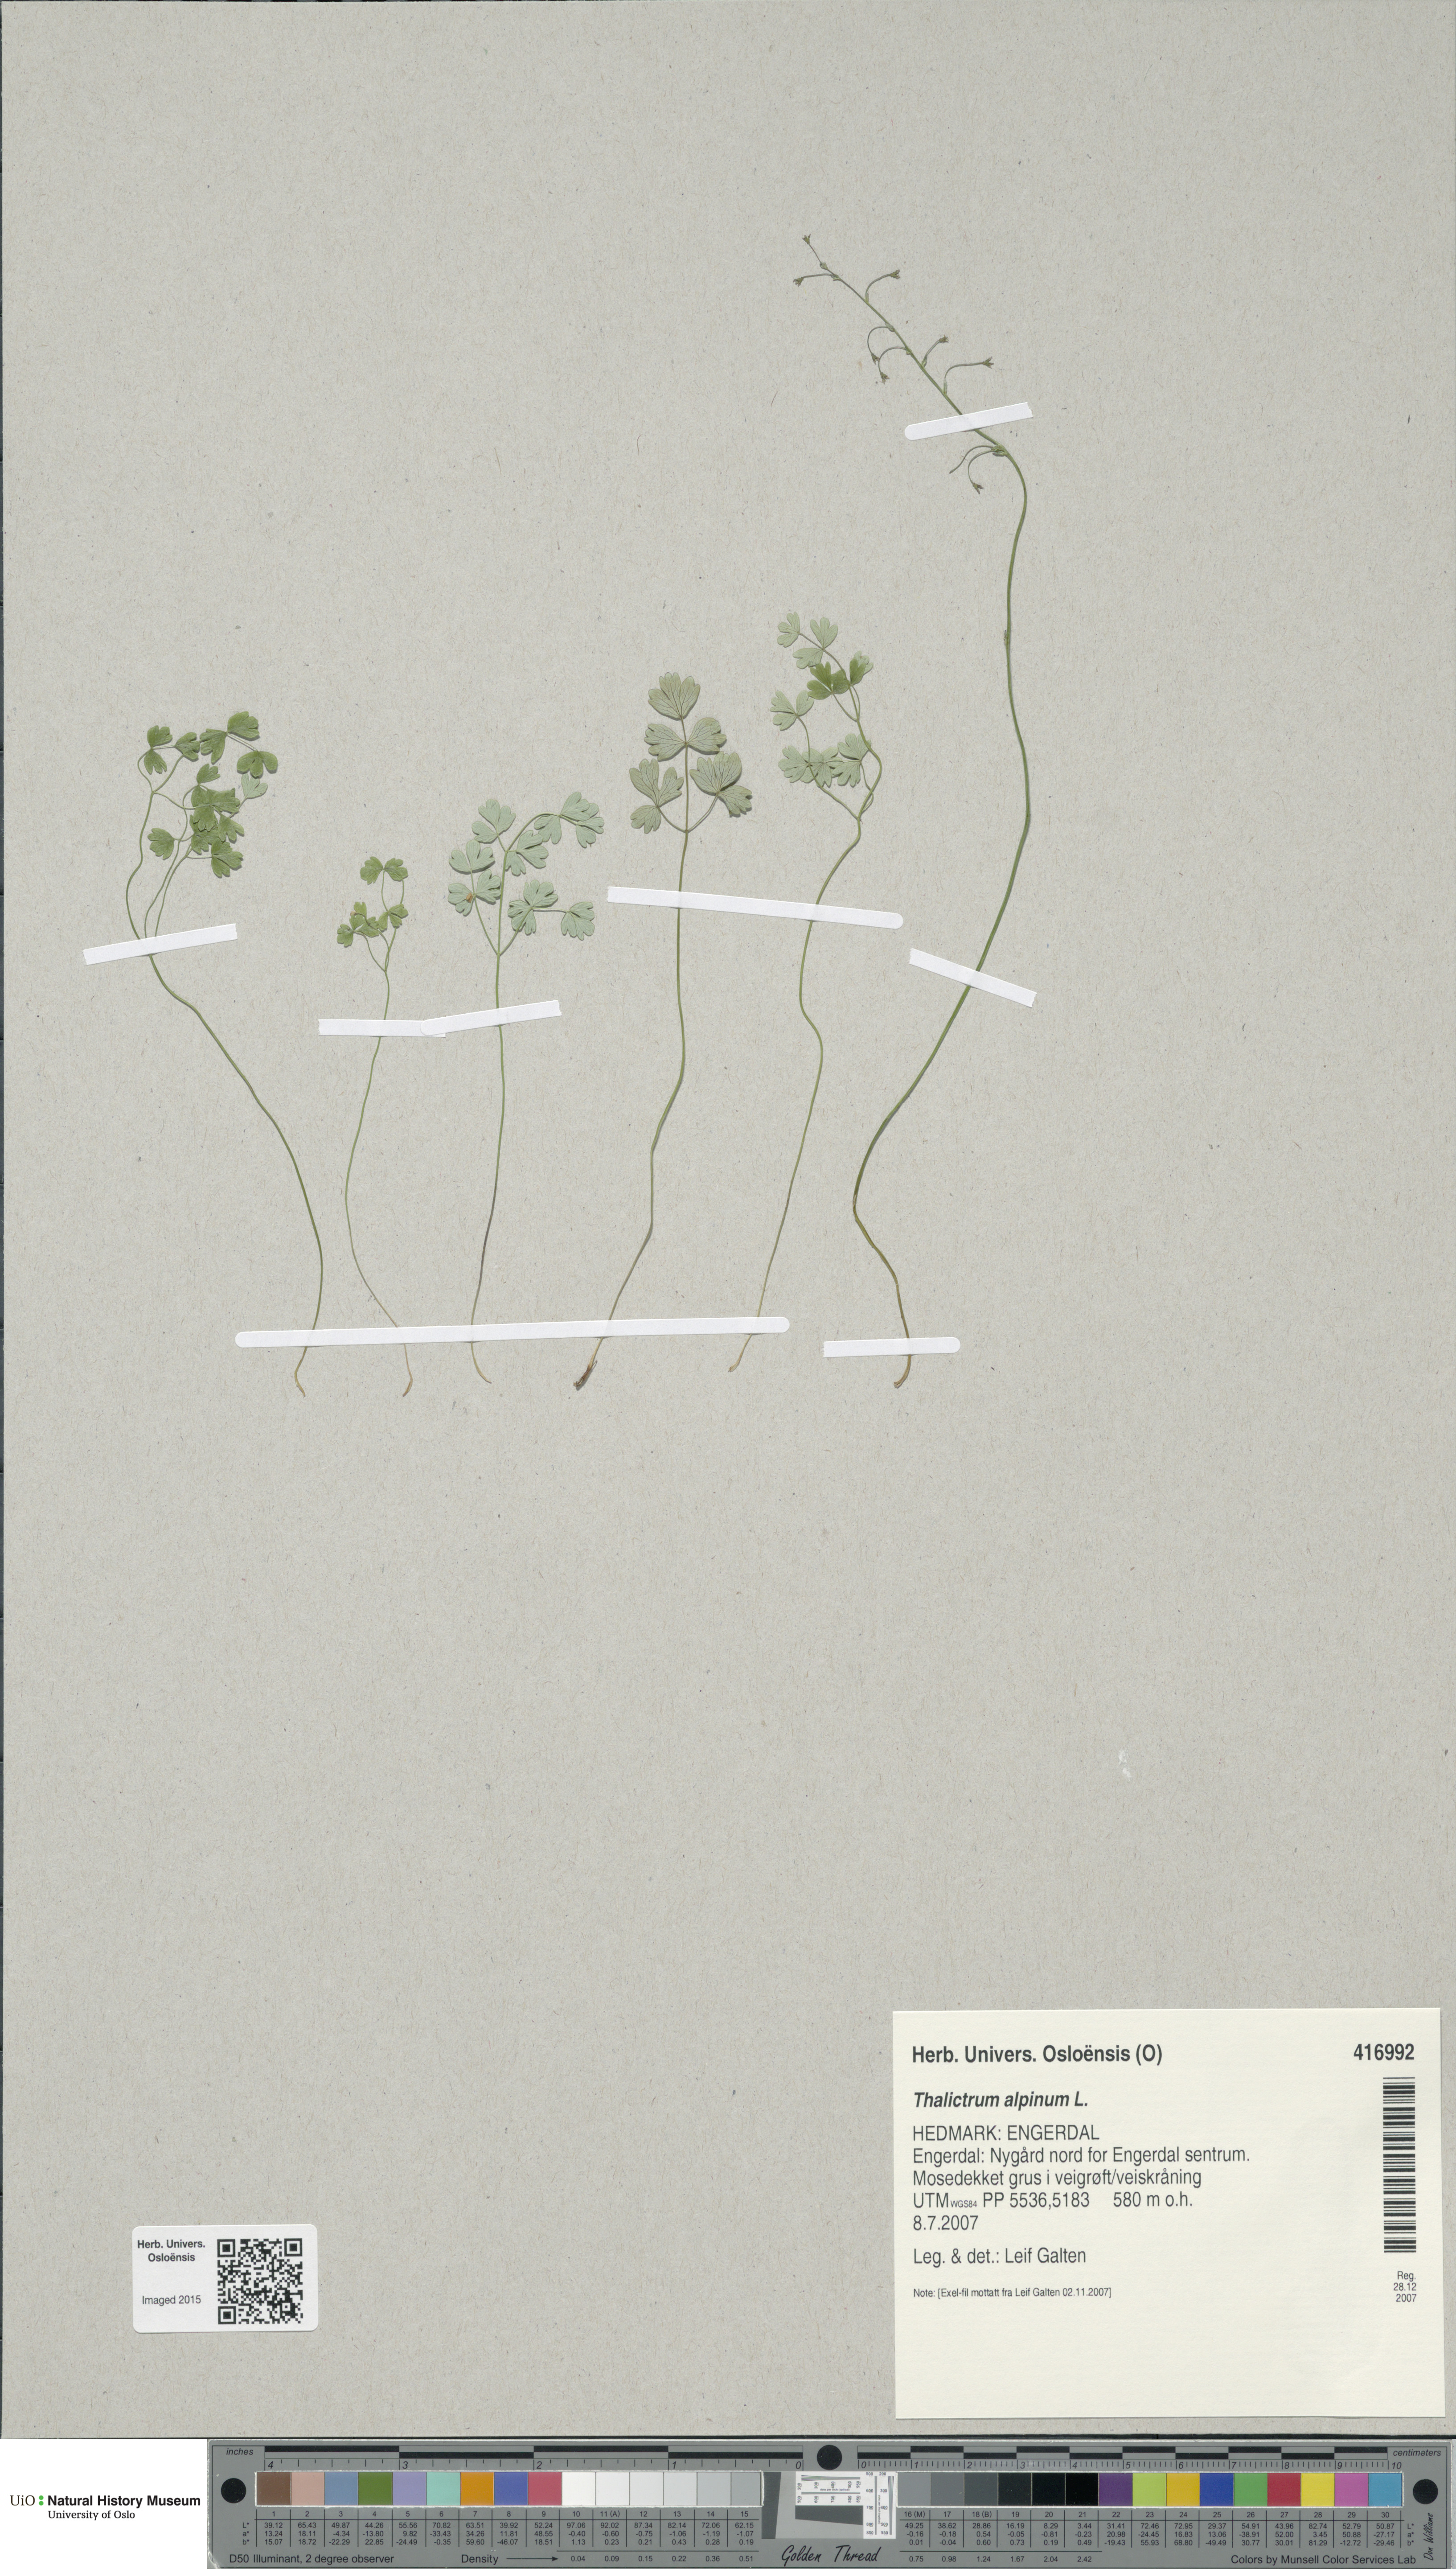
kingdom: Plantae
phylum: Tracheophyta
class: Magnoliopsida
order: Ranunculales
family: Ranunculaceae
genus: Thalictrum
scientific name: Thalictrum alpinum
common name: Alpine meadow-rue
